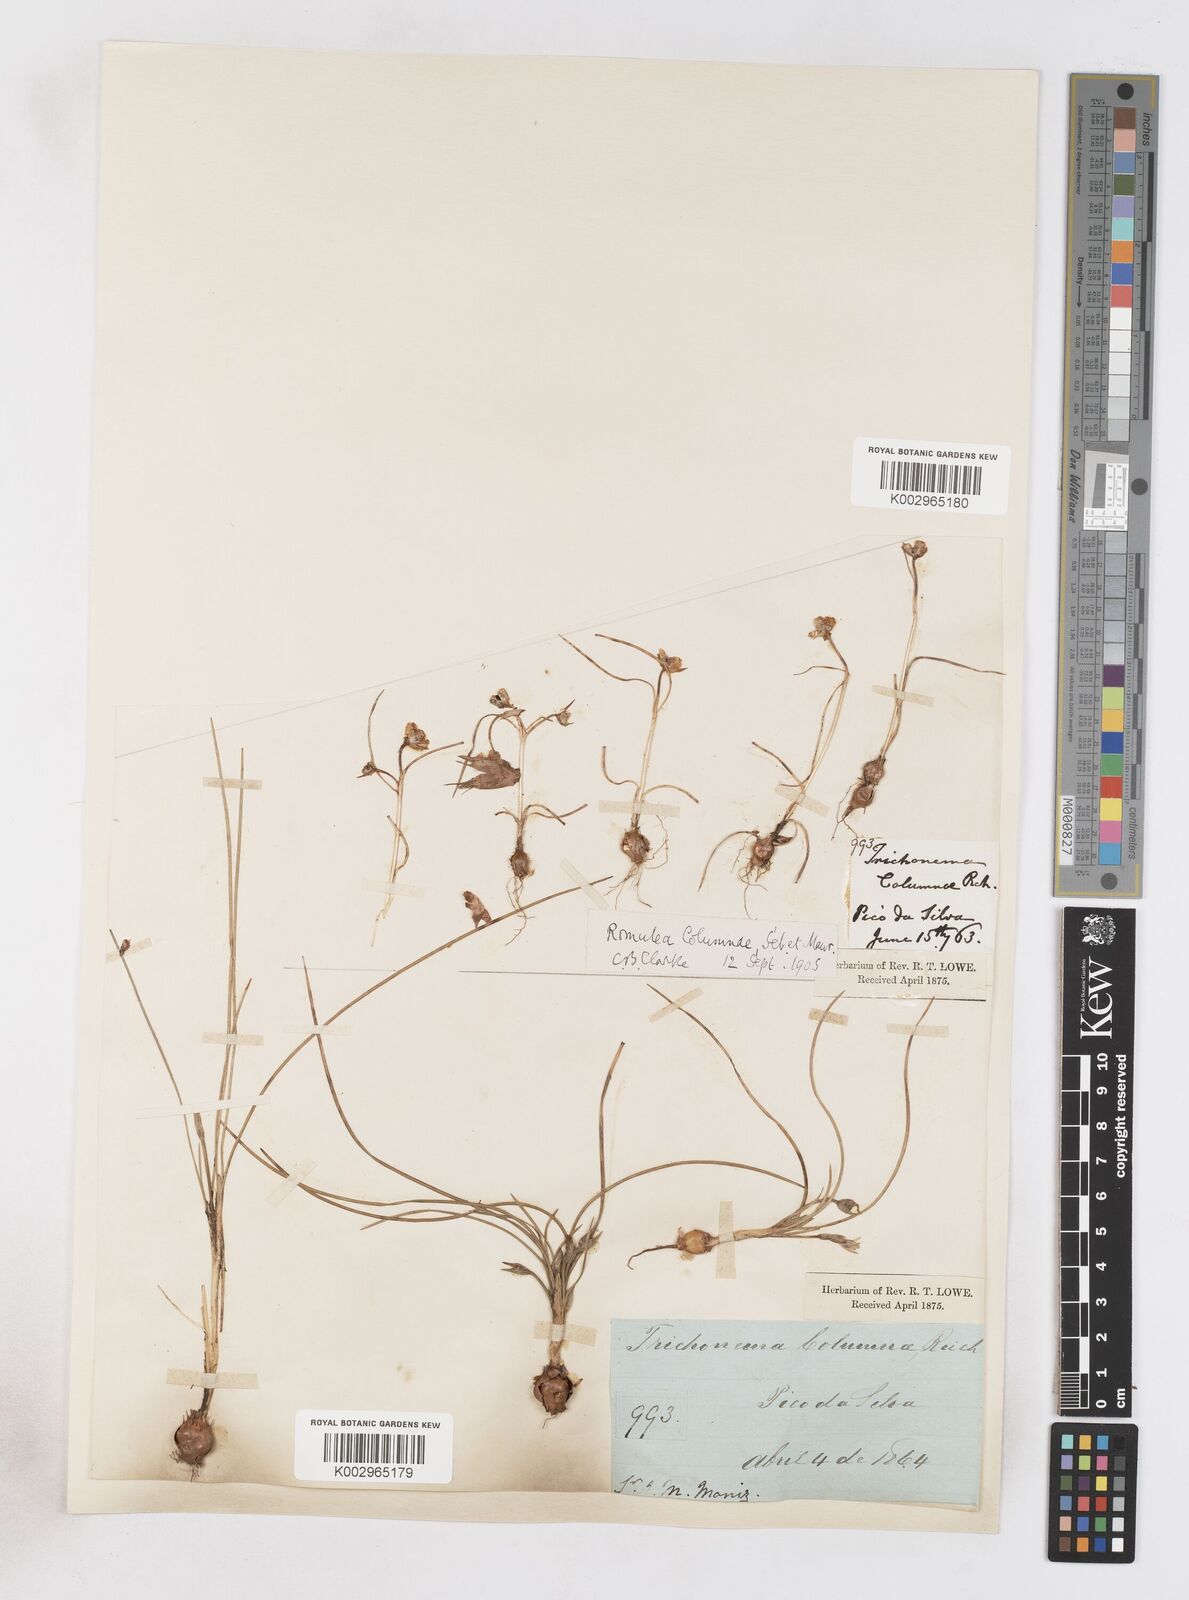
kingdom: Plantae
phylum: Tracheophyta
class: Liliopsida
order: Asparagales
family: Iridaceae
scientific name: Iridaceae
